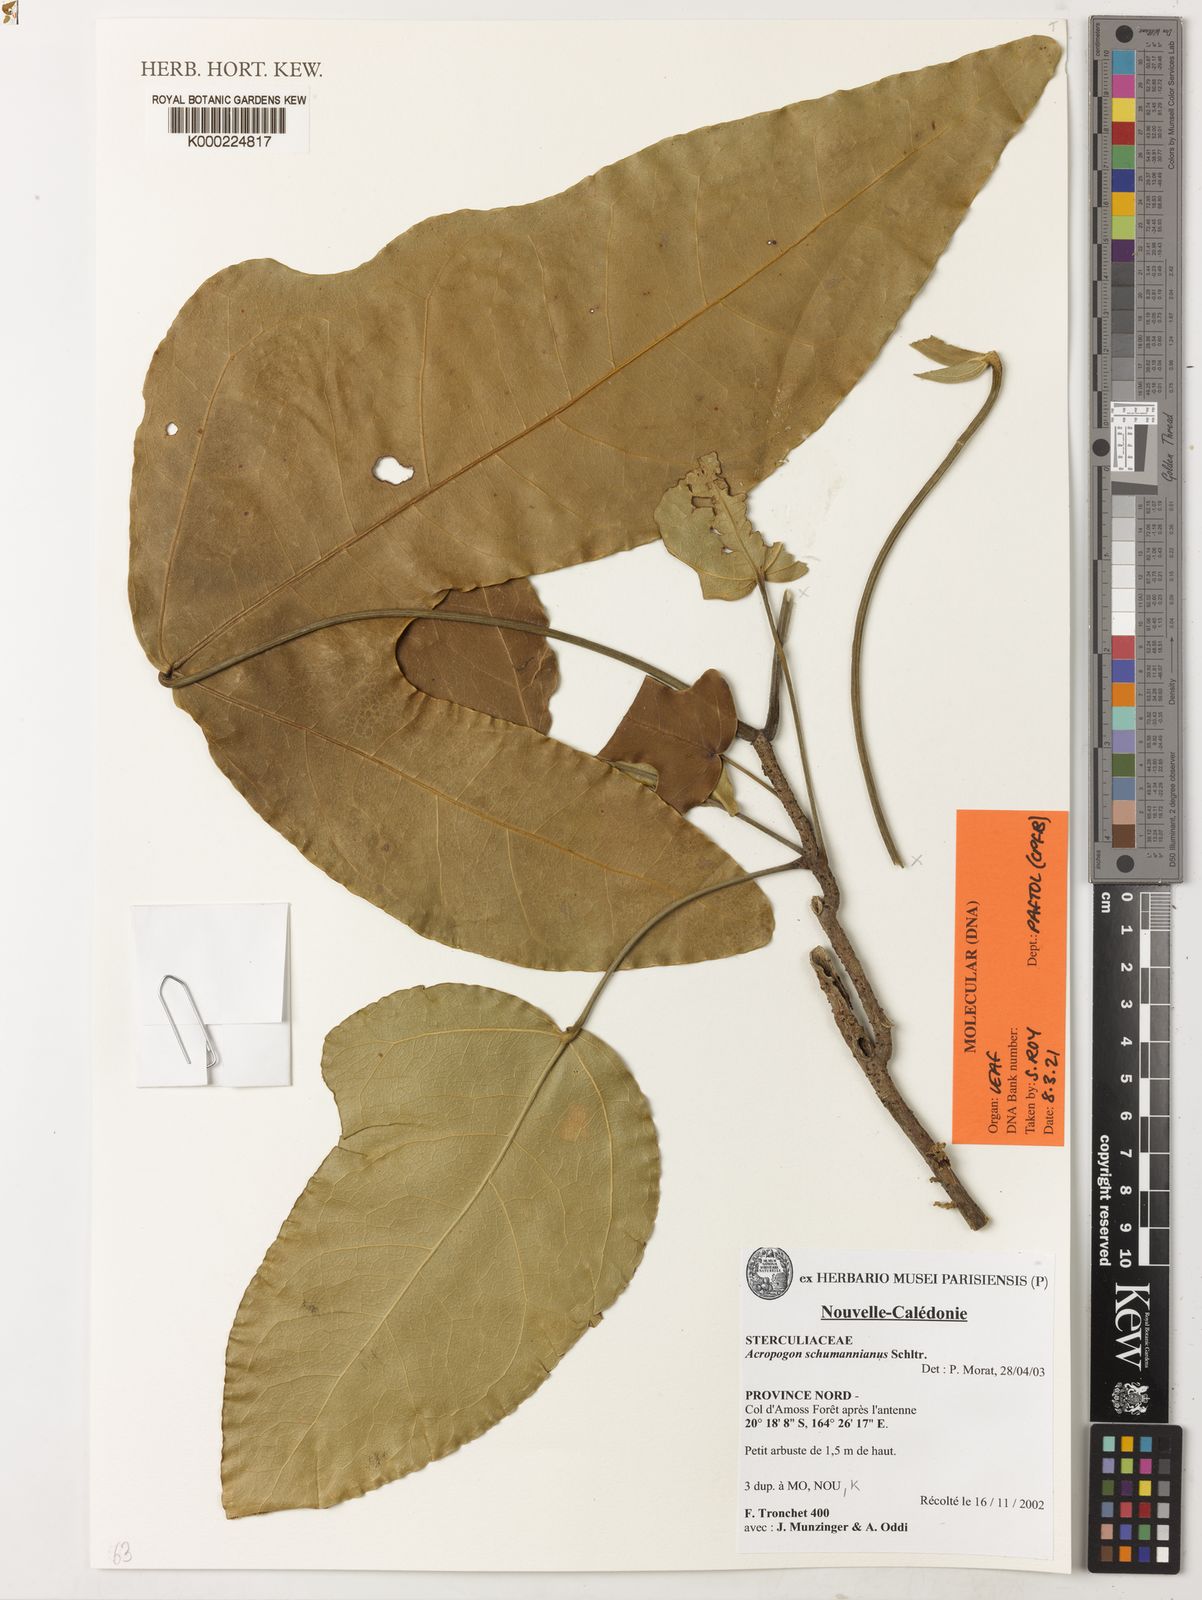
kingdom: Plantae
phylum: Tracheophyta
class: Magnoliopsida
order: Malvales
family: Malvaceae
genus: Acropogon
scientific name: Acropogon schumanniana
